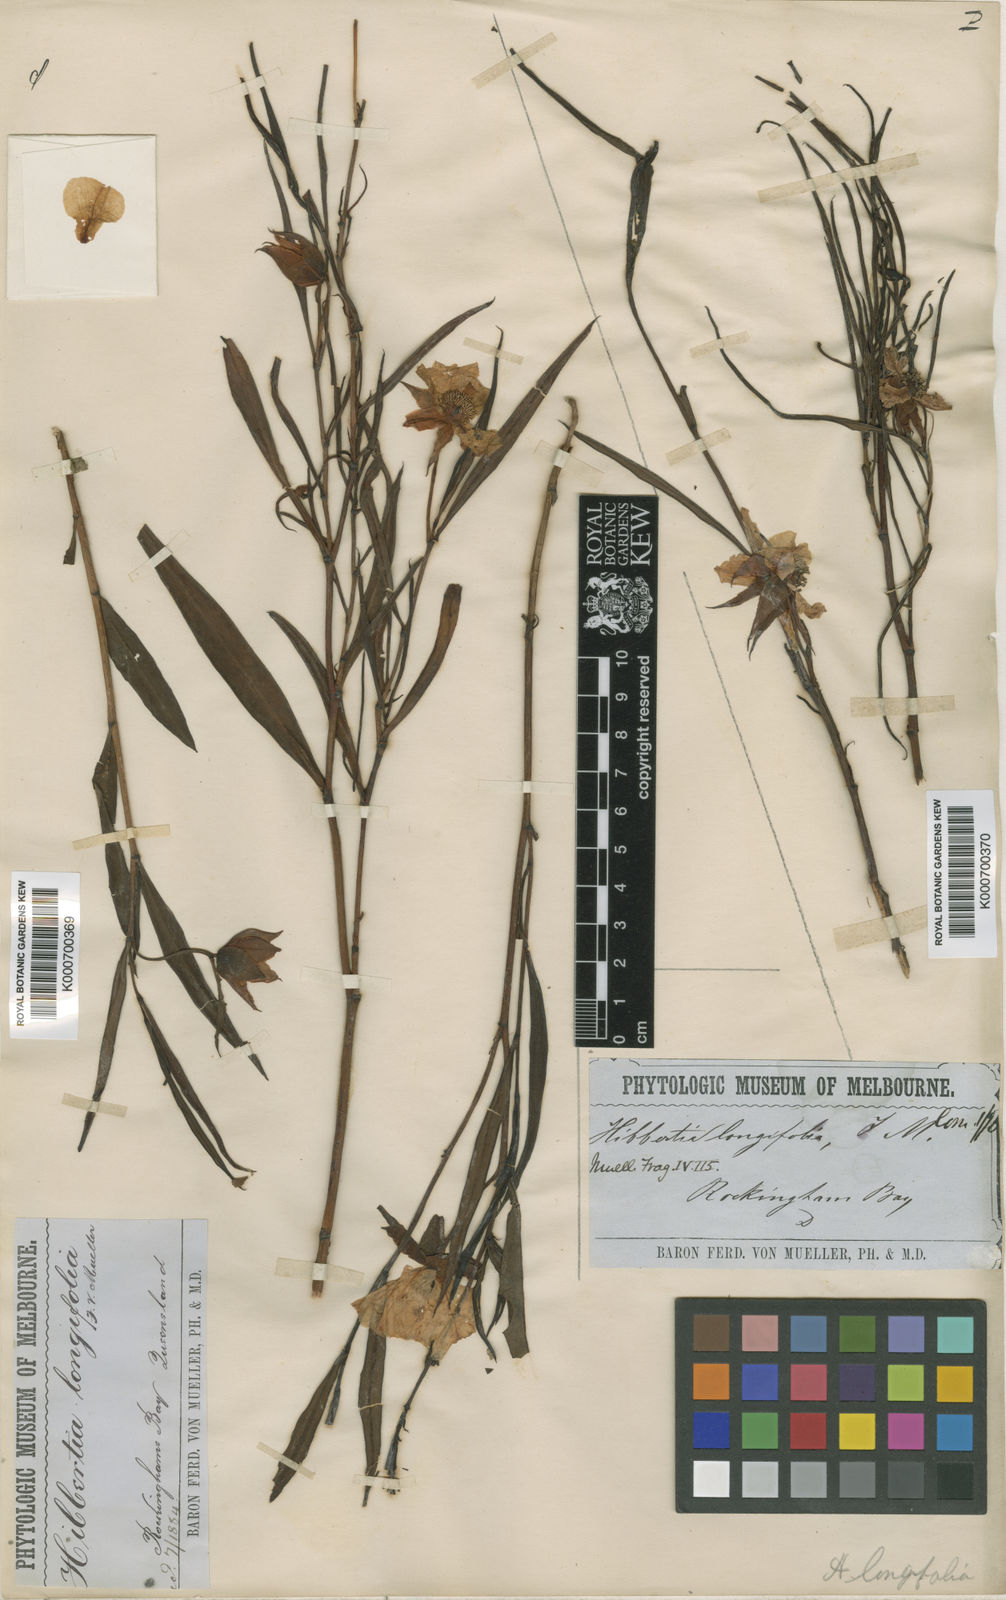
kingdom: Plantae
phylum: Tracheophyta
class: Magnoliopsida
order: Dilleniales
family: Dilleniaceae
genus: Hibbertia
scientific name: Hibbertia longifolia
